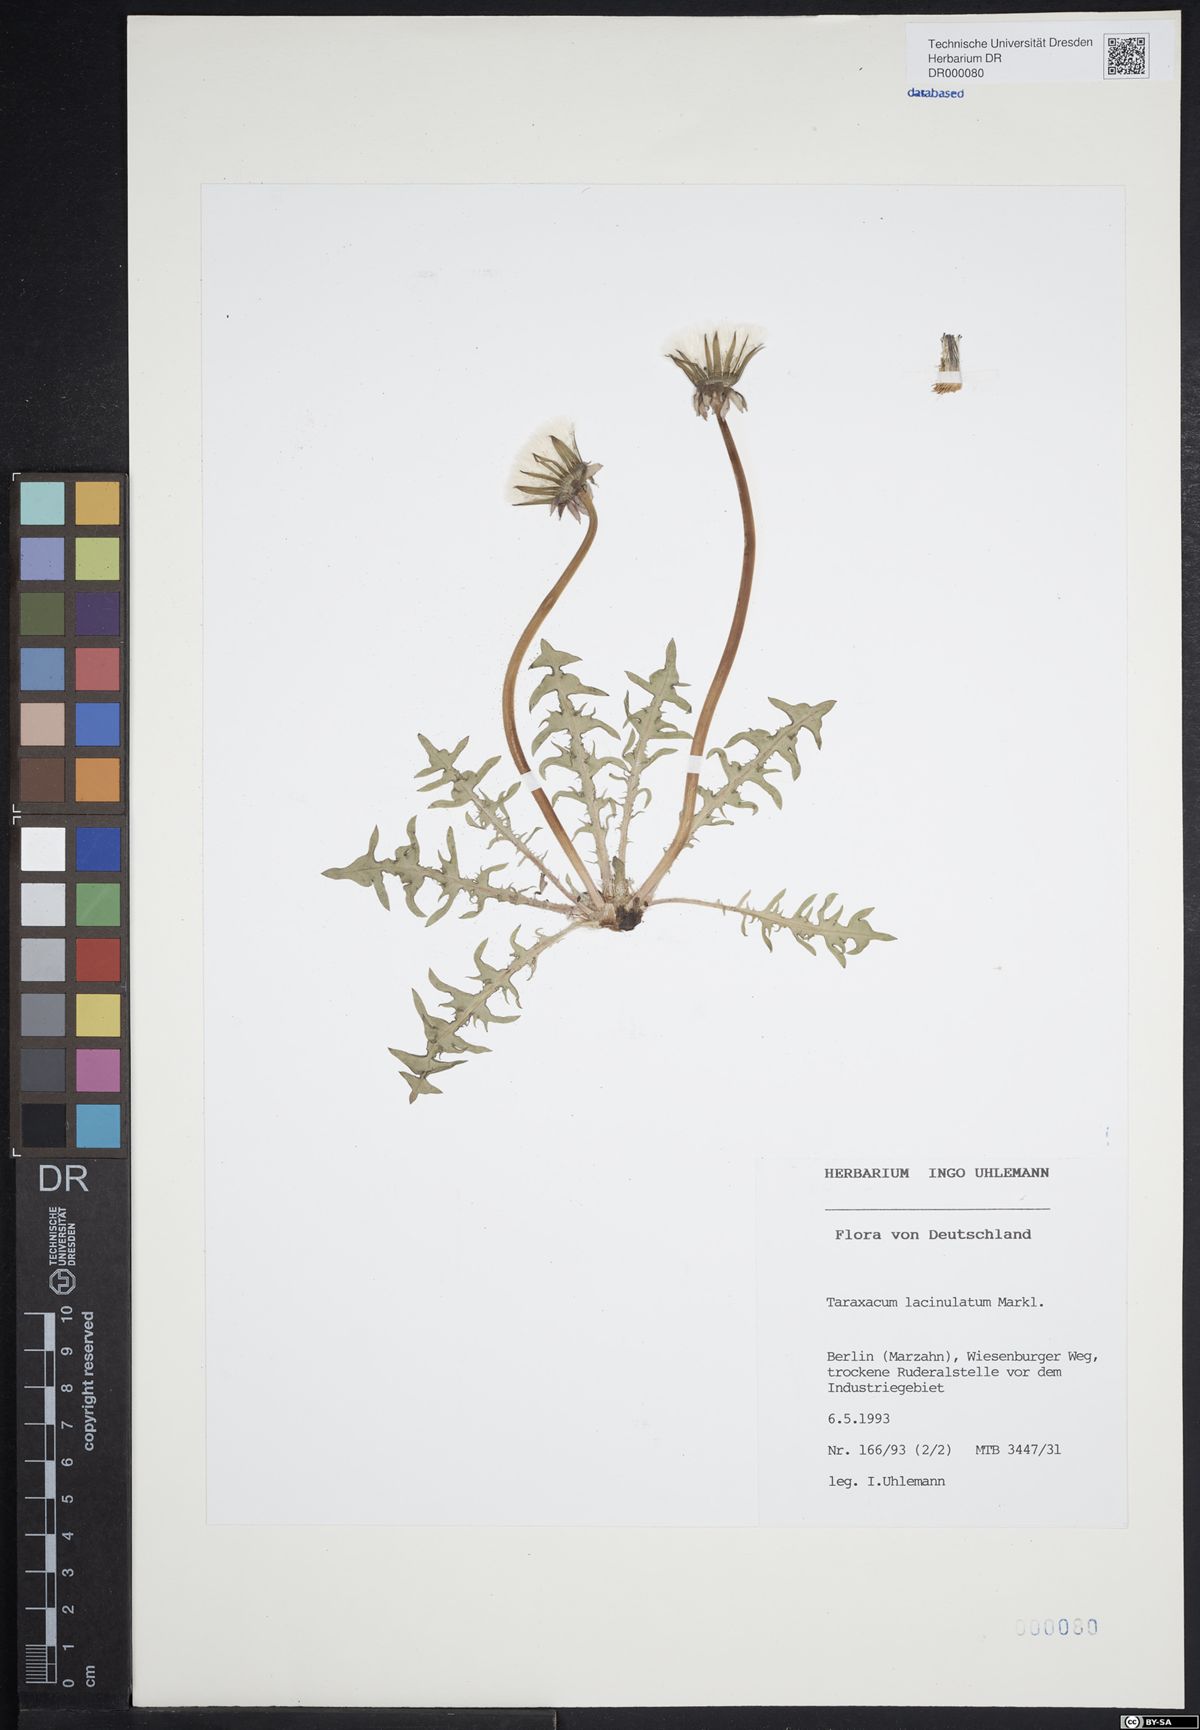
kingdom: Plantae
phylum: Tracheophyta
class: Magnoliopsida
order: Asterales
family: Asteraceae
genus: Taraxacum
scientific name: Taraxacum lacinulatum
